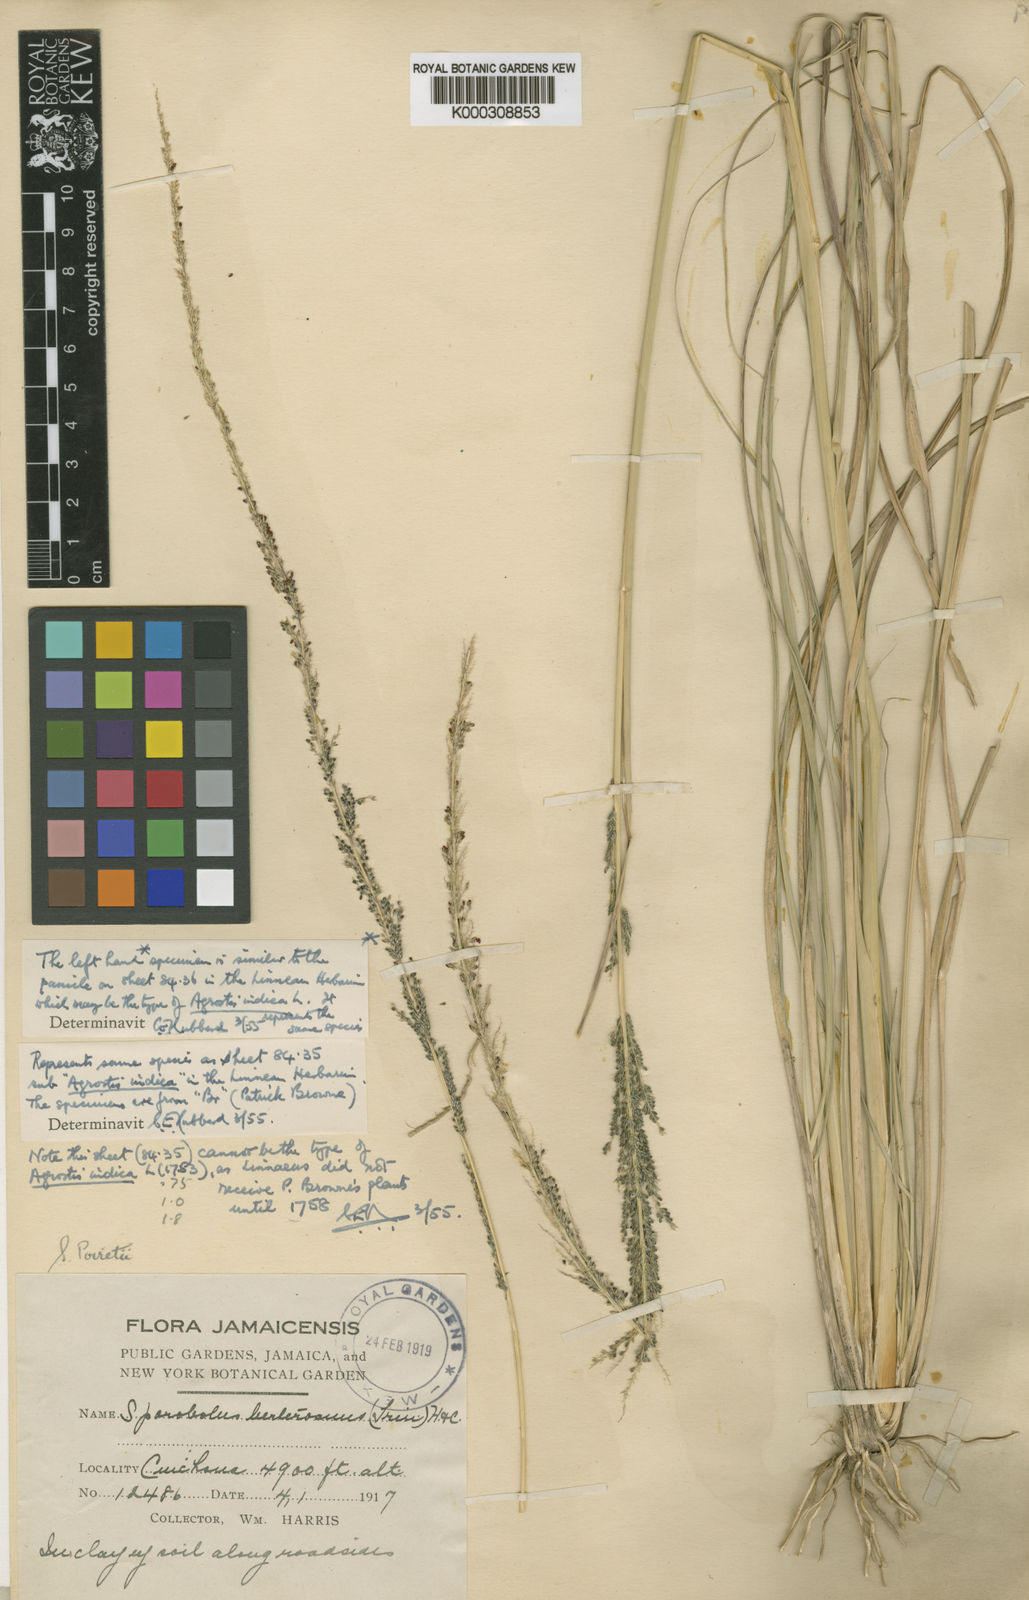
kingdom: Plantae
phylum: Tracheophyta
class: Liliopsida
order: Poales
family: Poaceae
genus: Sporobolus
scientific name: Sporobolus indicus
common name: Smut grass
